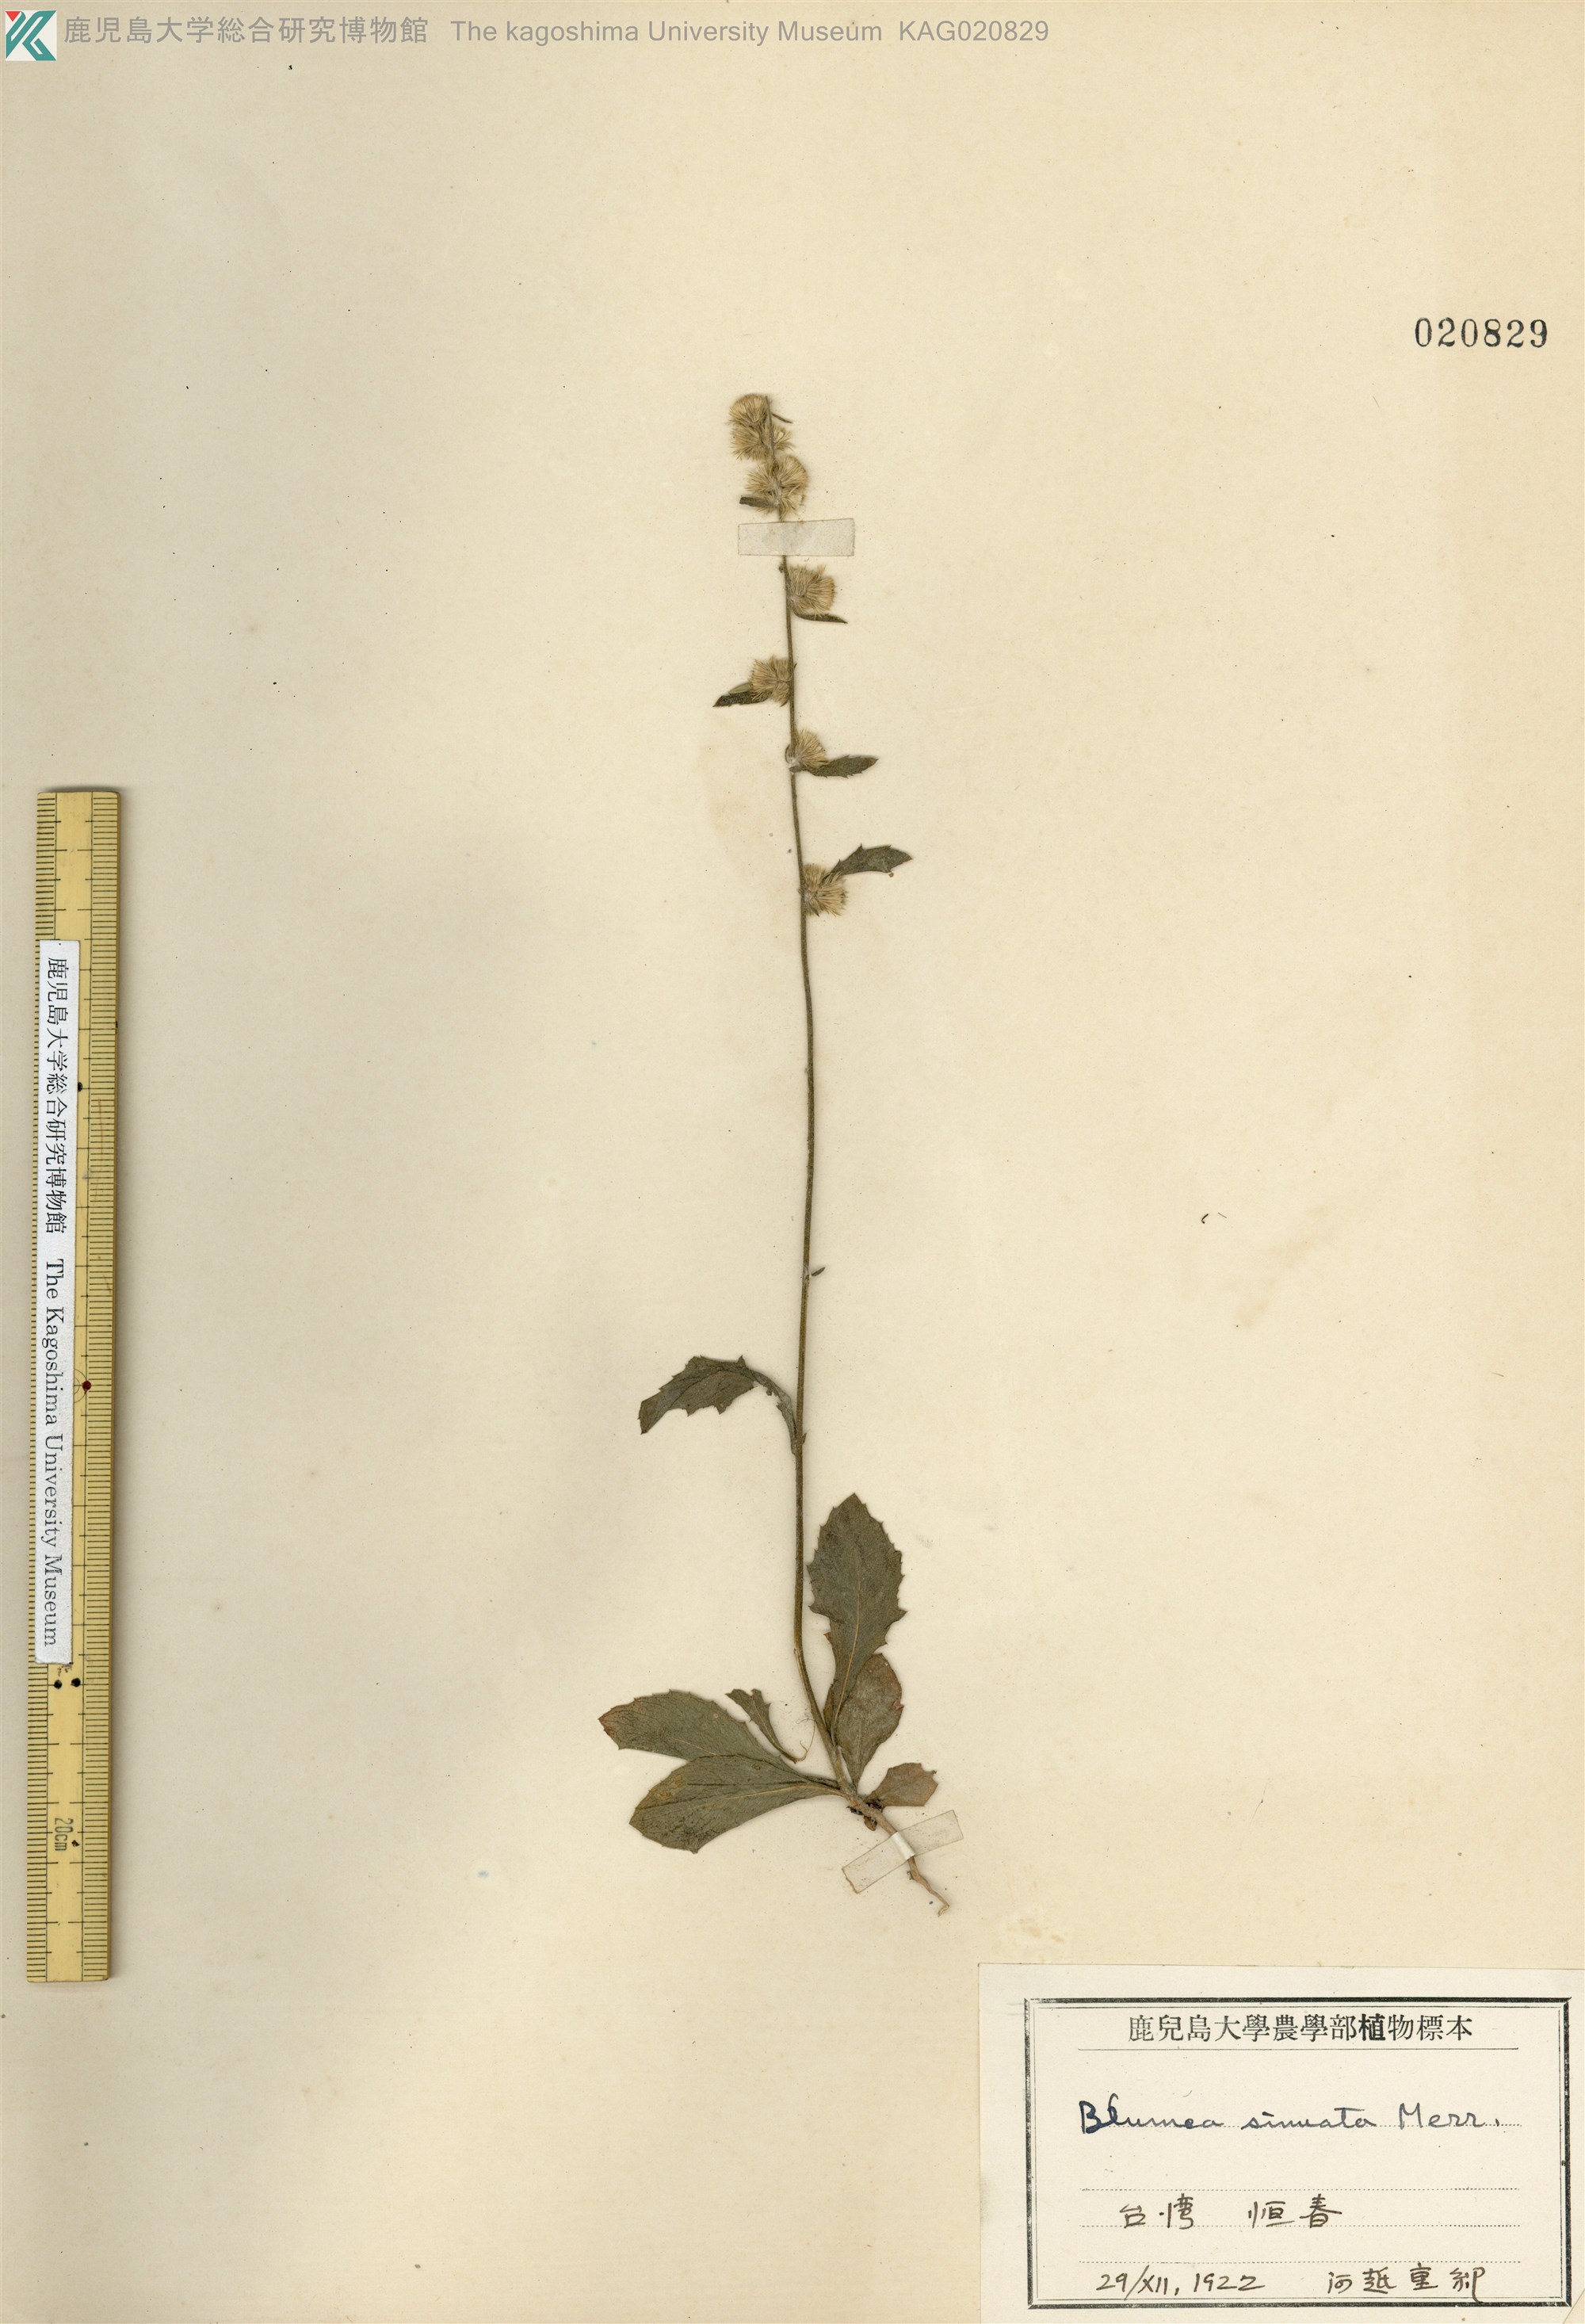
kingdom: Plantae
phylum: Tracheophyta
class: Magnoliopsida
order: Asterales
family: Asteraceae
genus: Blumea
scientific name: Blumea sinuata
